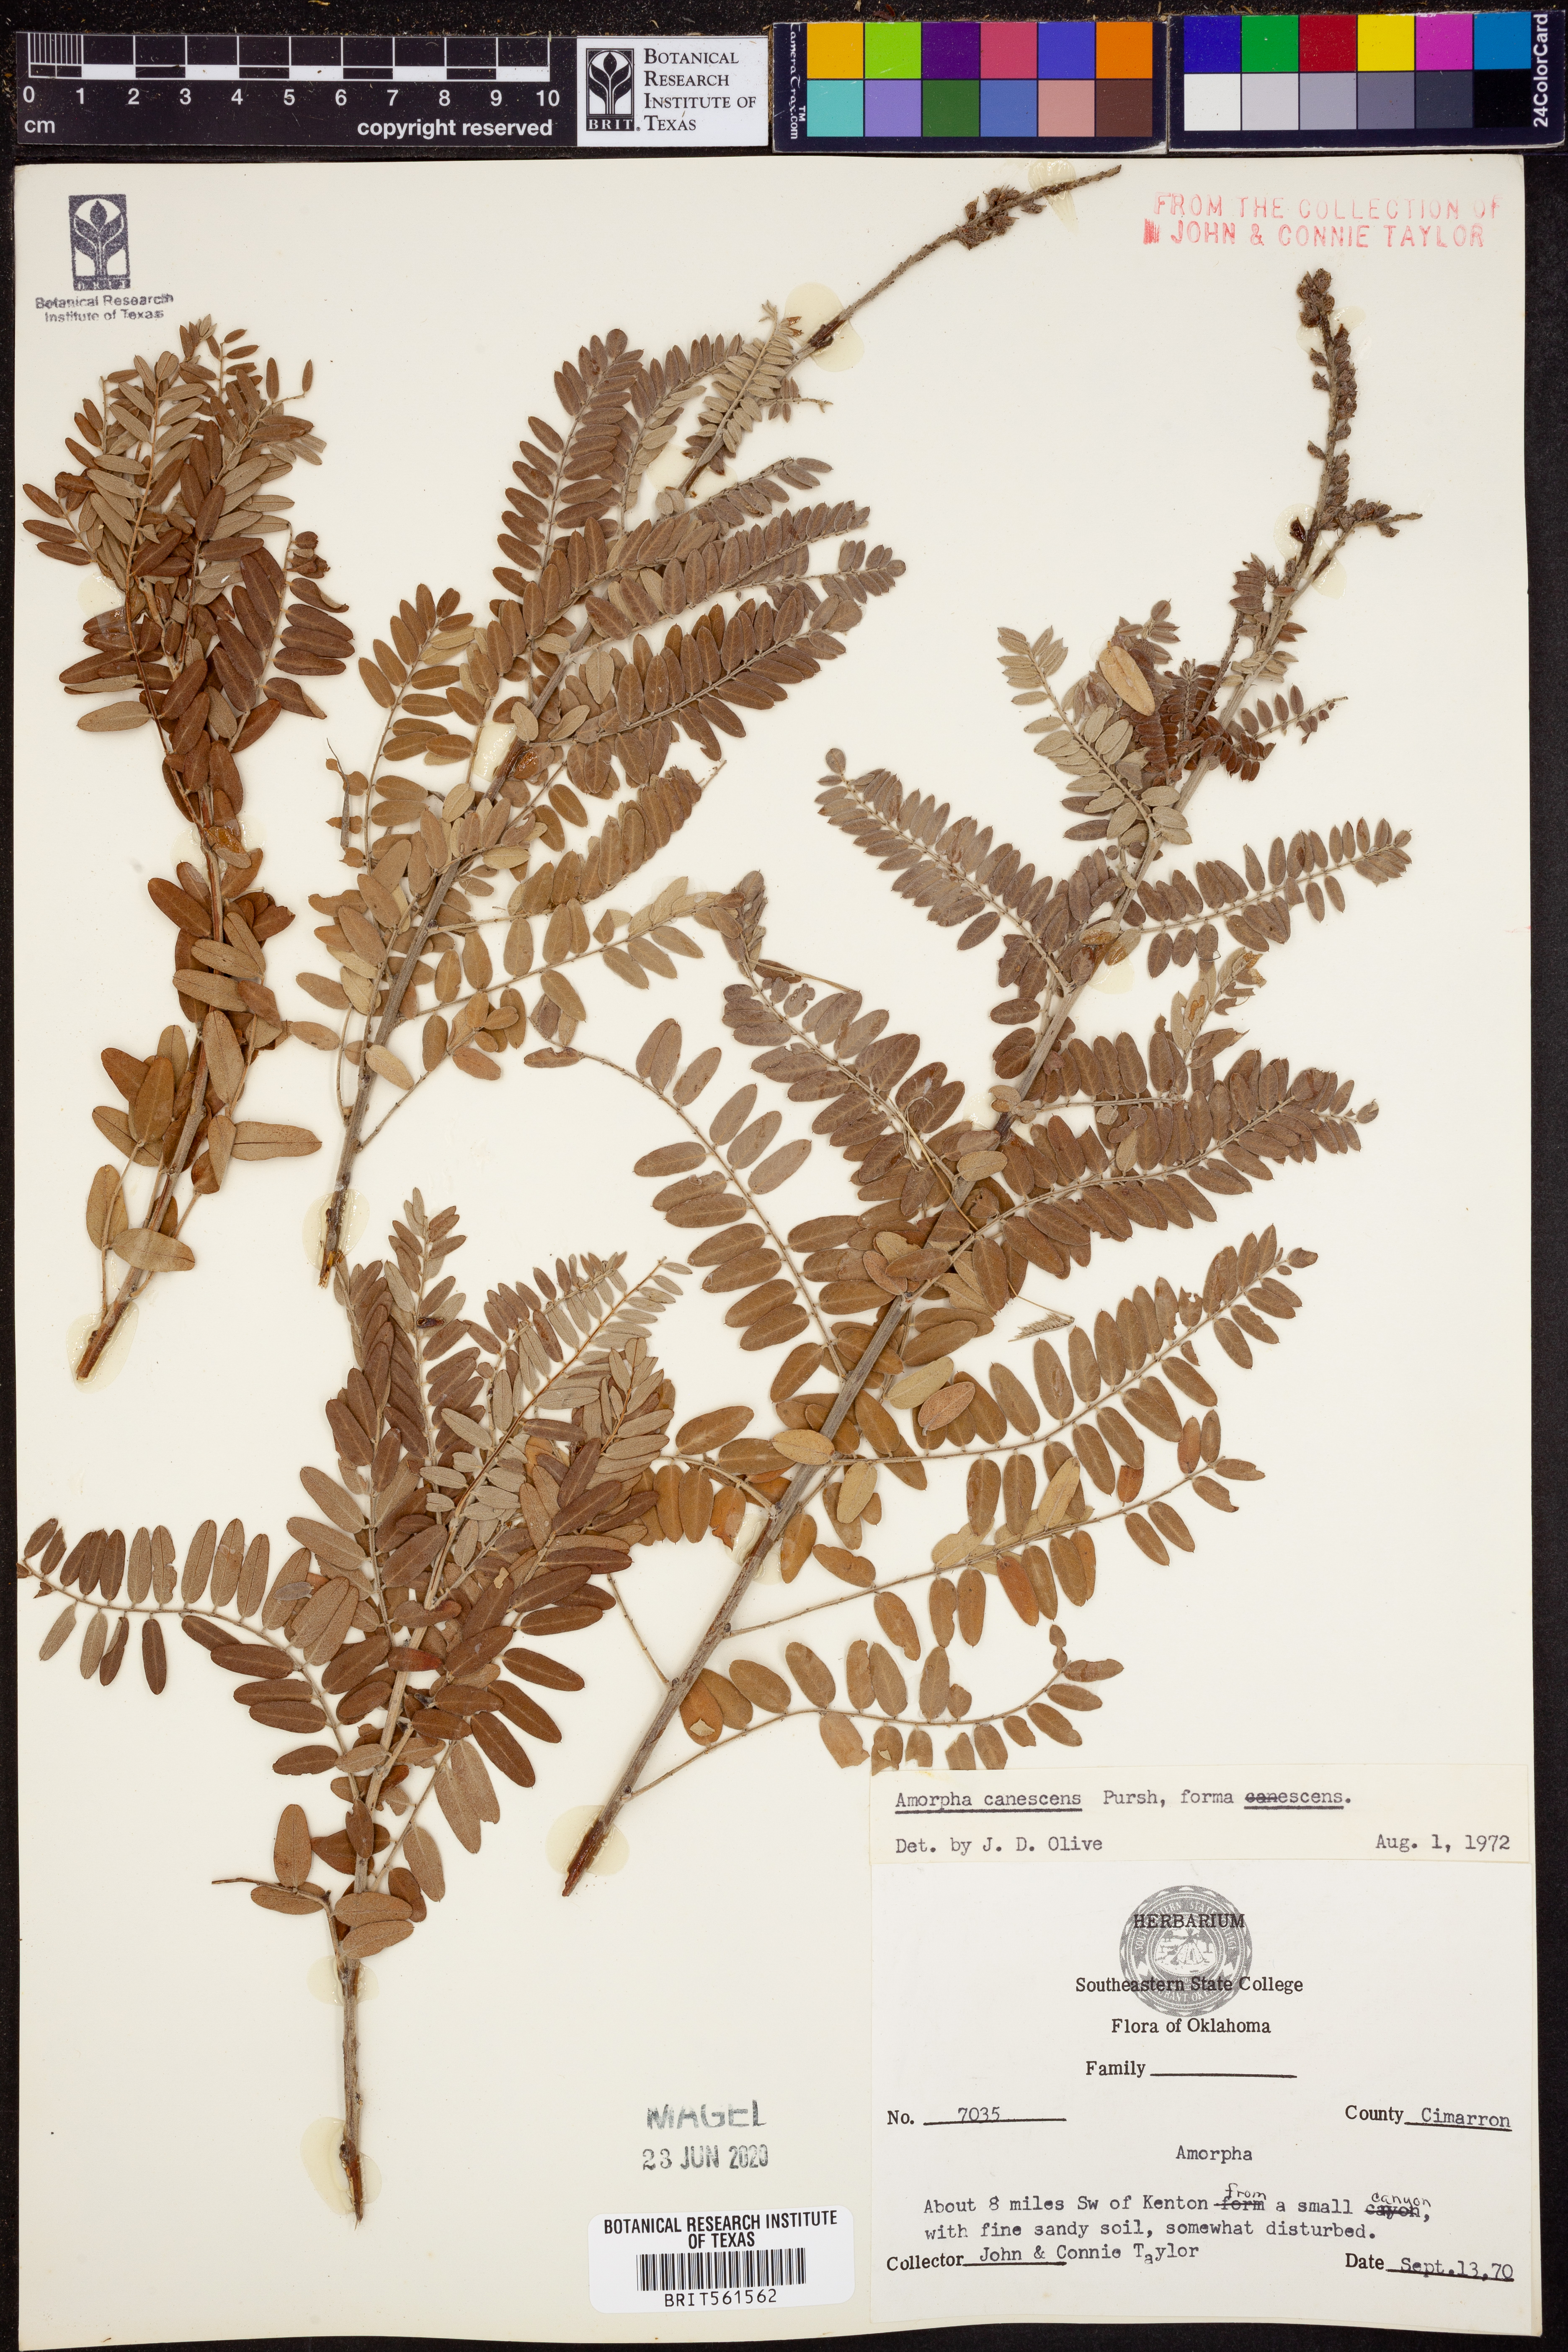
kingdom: Plantae
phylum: Tracheophyta
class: Magnoliopsida
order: Fabales
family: Fabaceae
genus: Amorpha
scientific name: Amorpha canescens
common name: Leadplant
